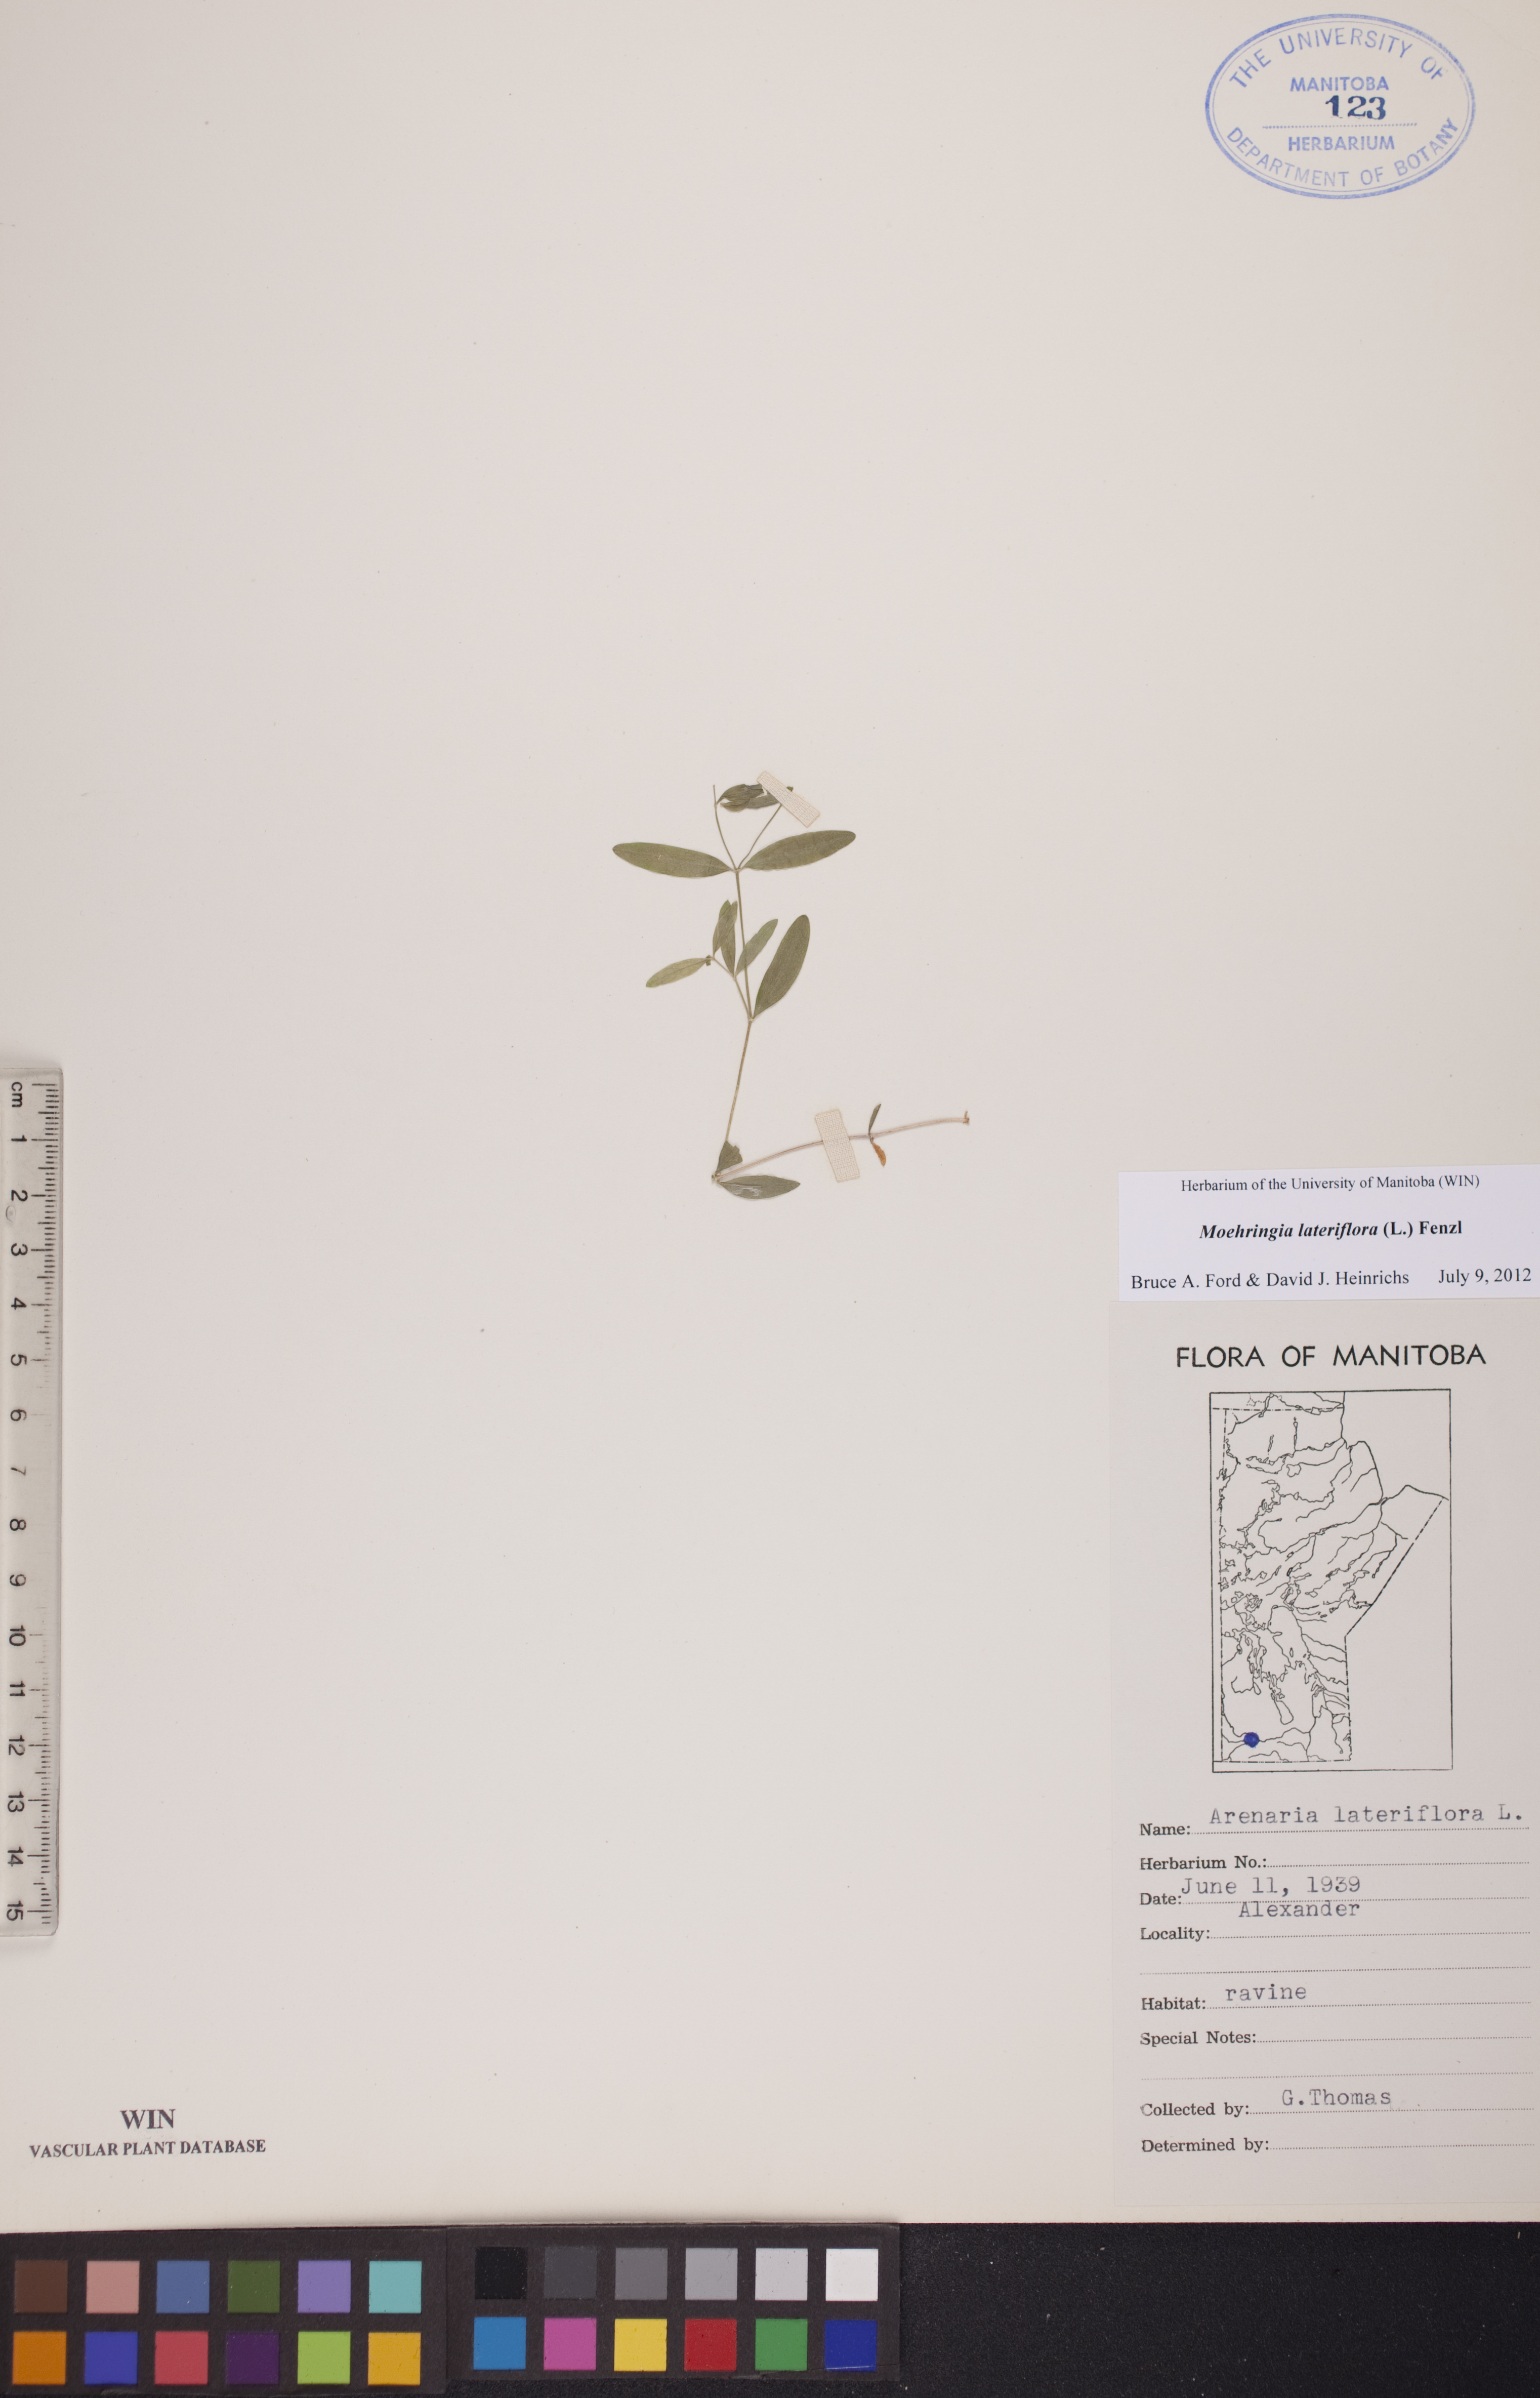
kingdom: Plantae
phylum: Tracheophyta
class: Magnoliopsida
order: Caryophyllales
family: Caryophyllaceae
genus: Moehringia
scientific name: Moehringia lateriflora
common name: Blunt-leaved sandwort
